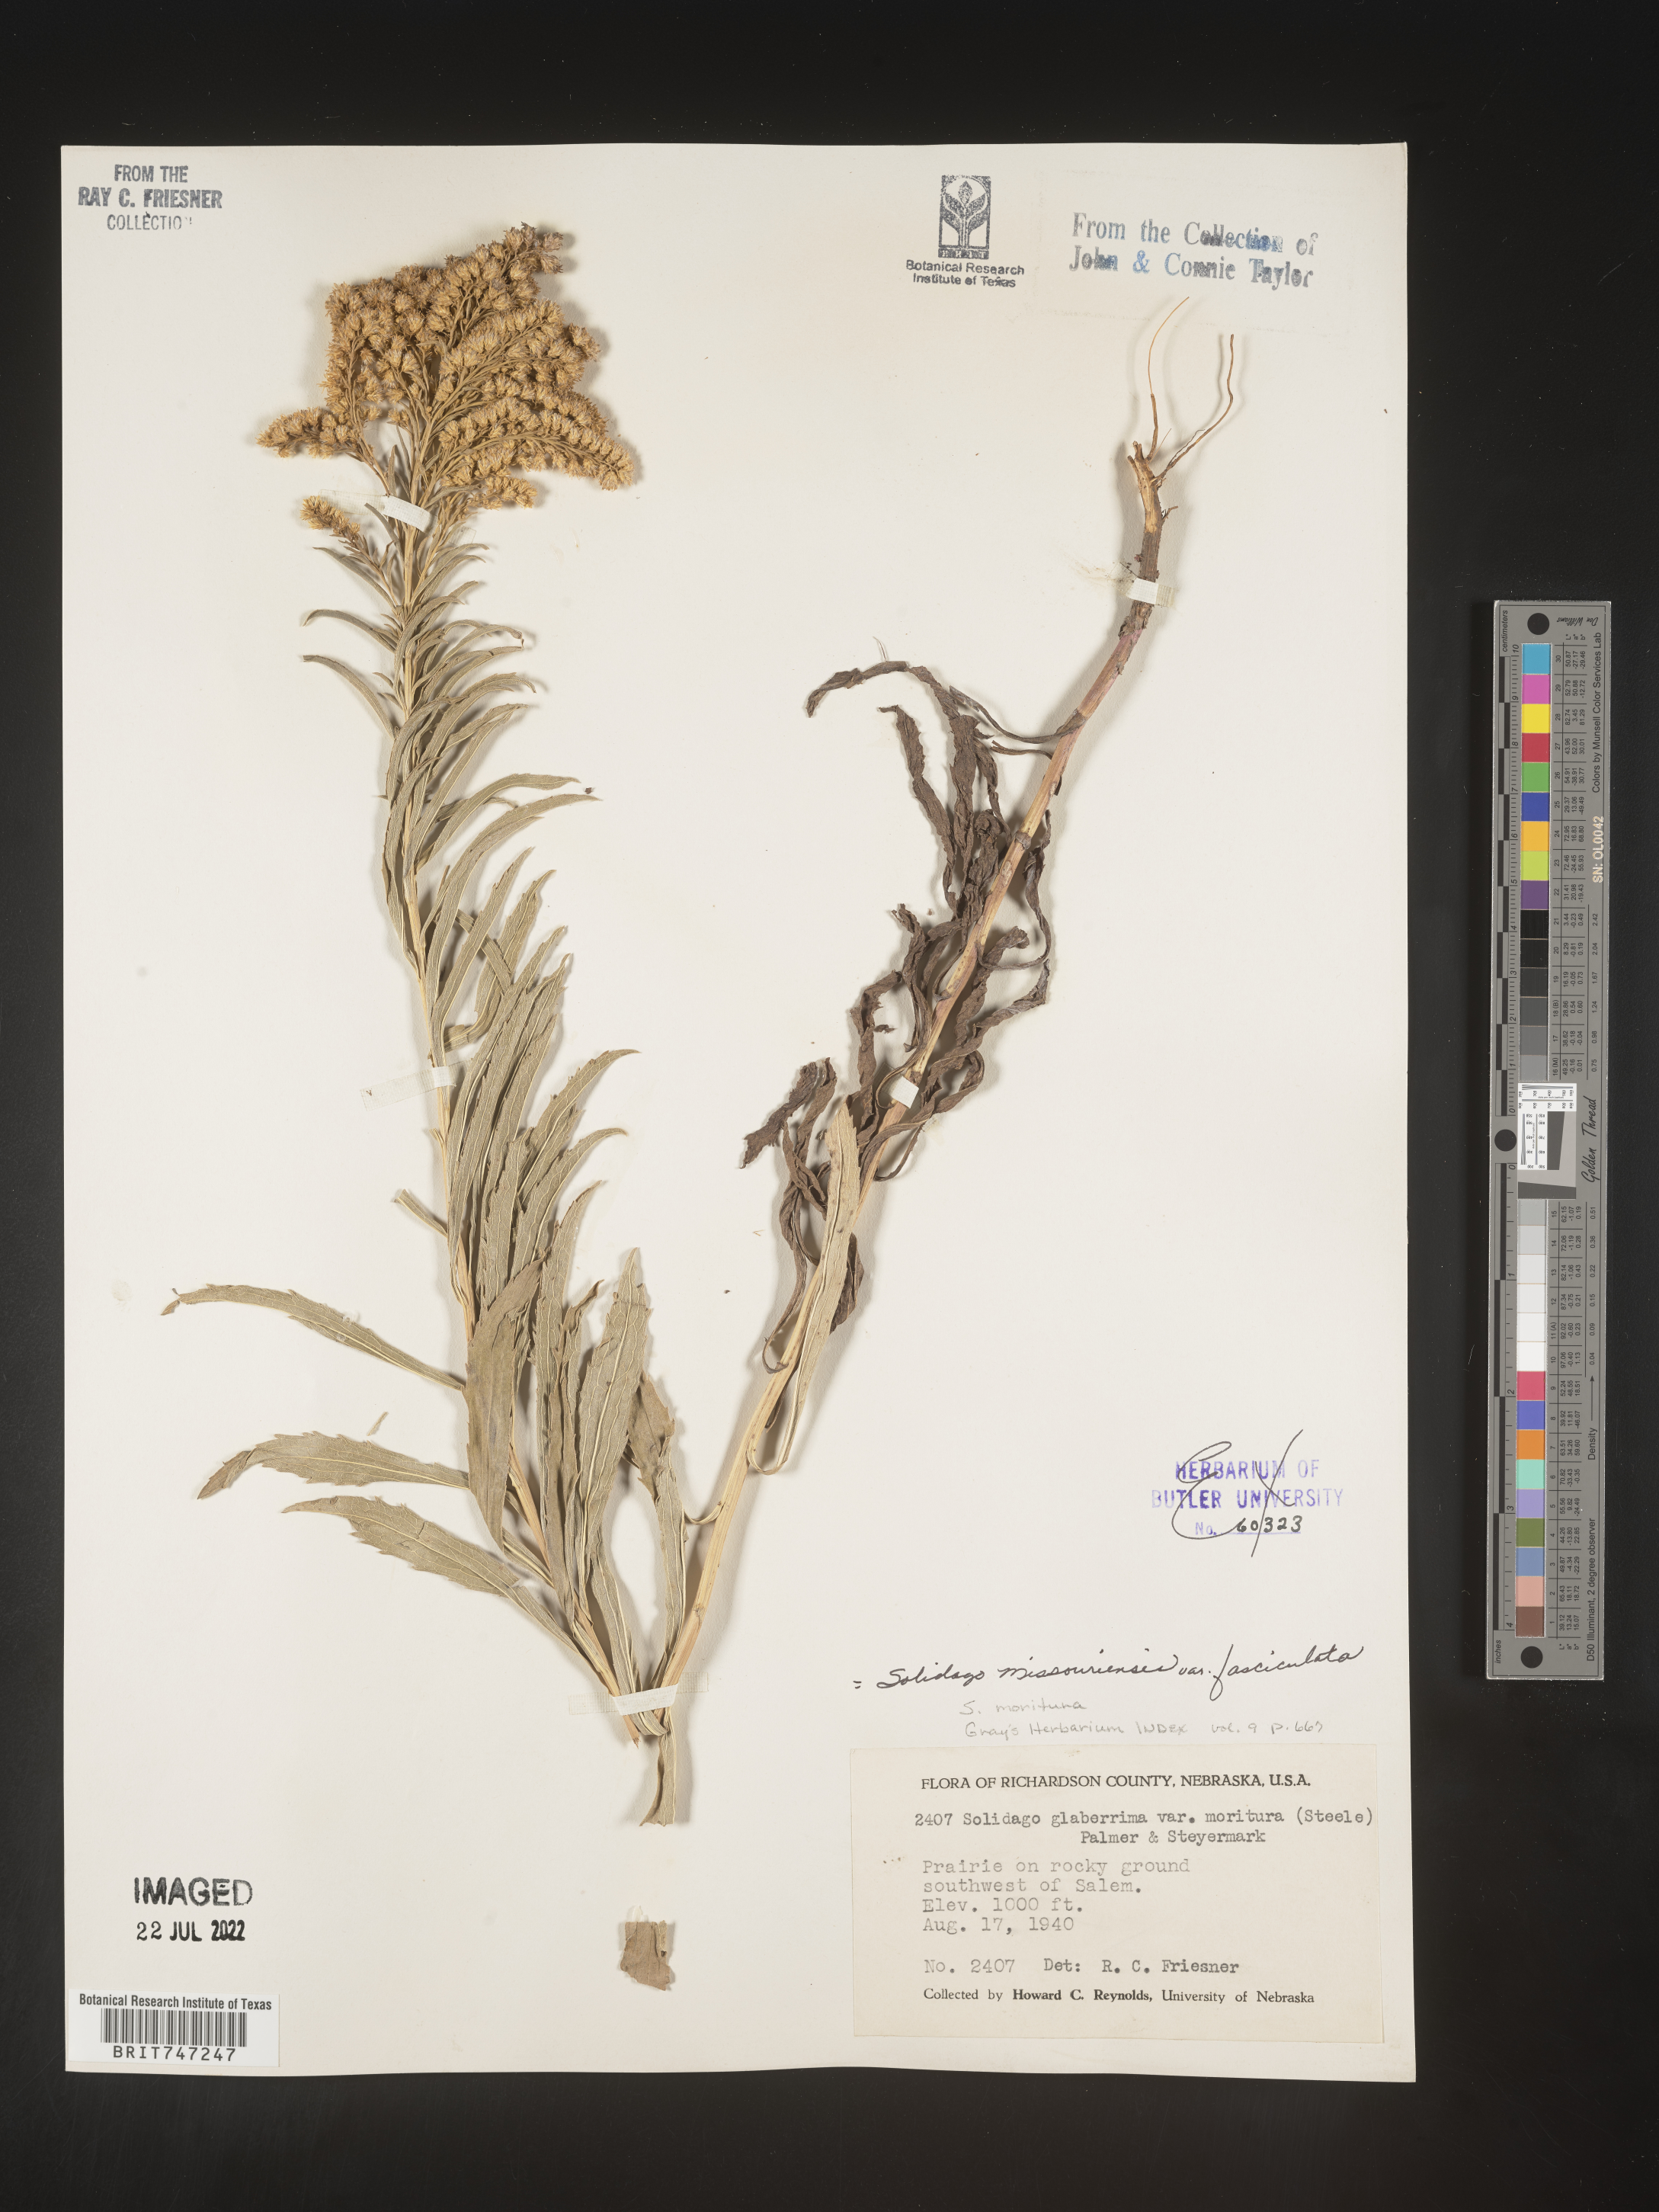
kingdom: Plantae
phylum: Tracheophyta
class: Magnoliopsida
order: Asterales
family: Asteraceae
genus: Solidago
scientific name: Solidago missouriensis
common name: Prairie goldenrod
